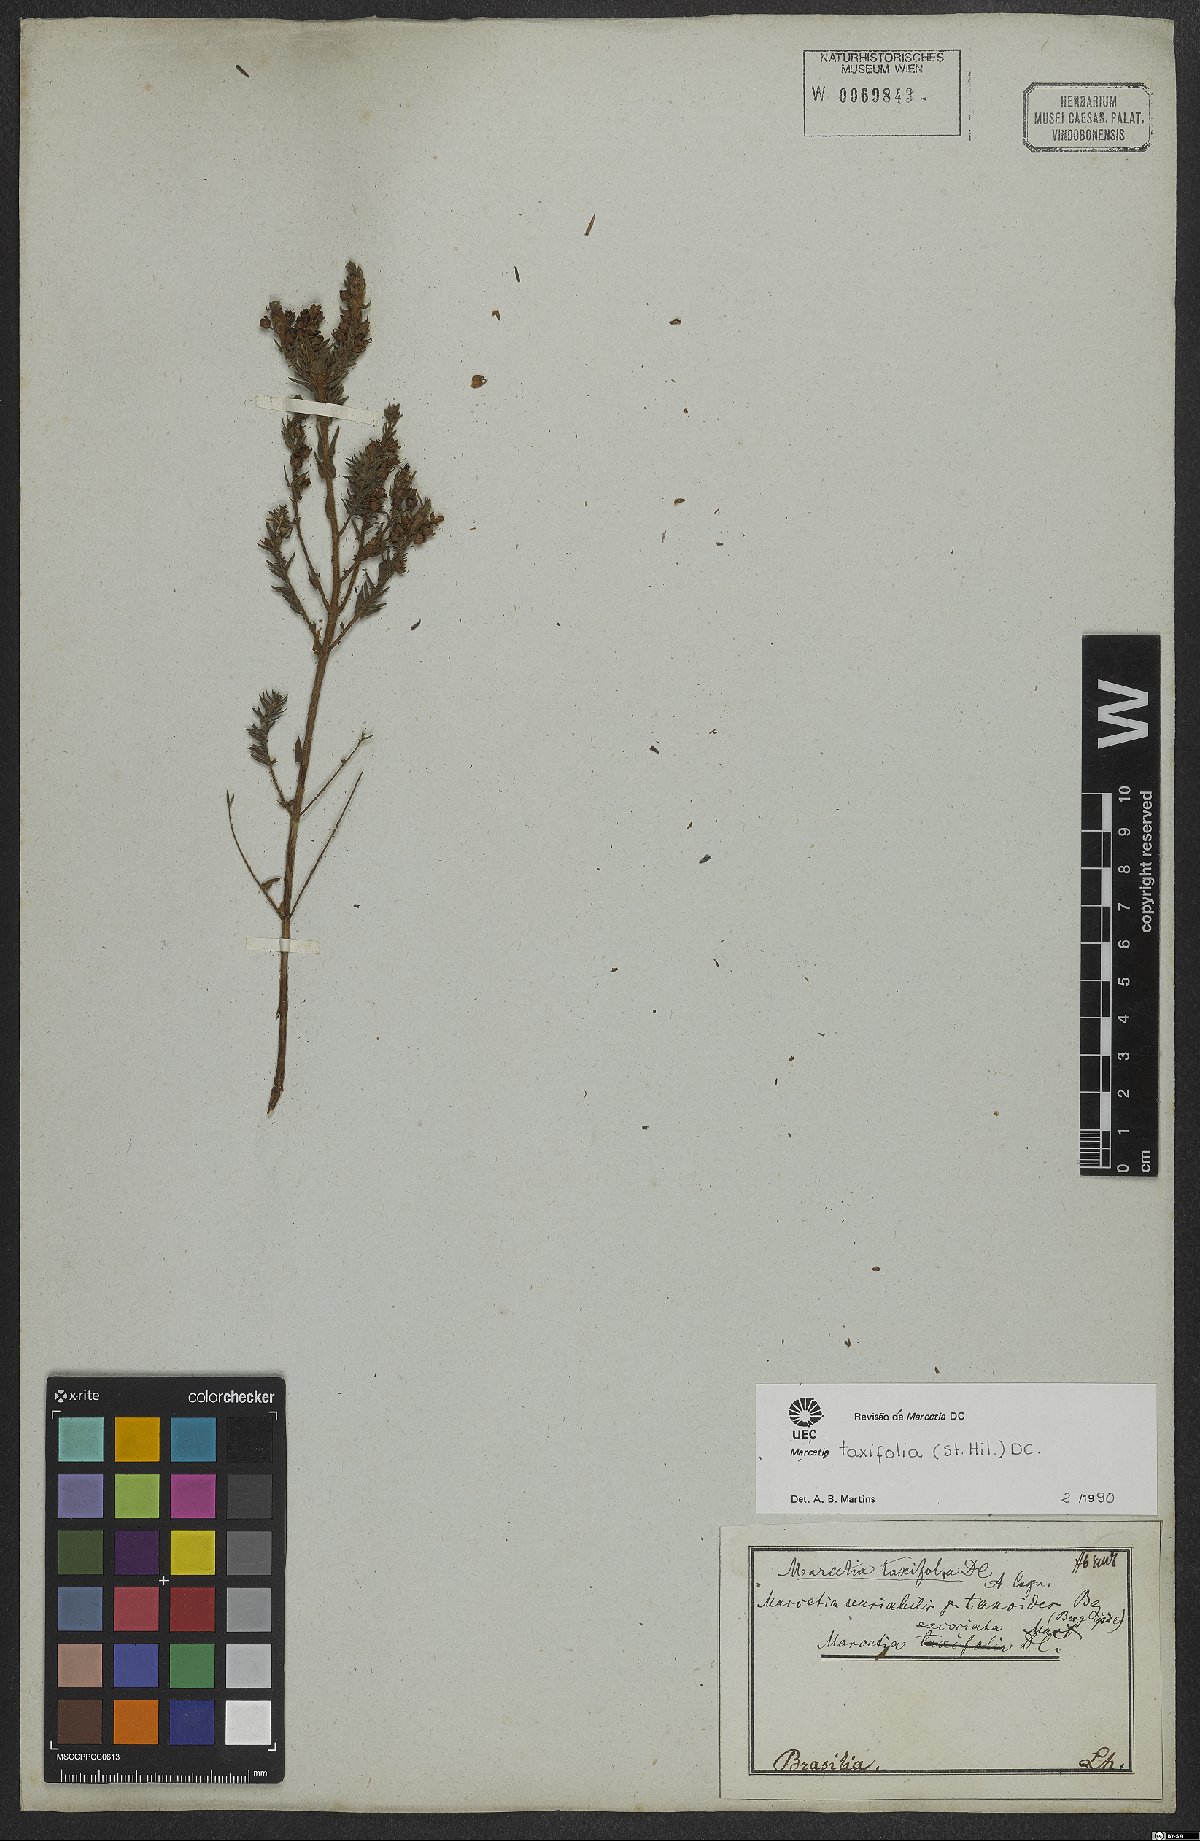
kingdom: Plantae
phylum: Tracheophyta
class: Magnoliopsida
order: Myrtales
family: Melastomataceae
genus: Marcetia
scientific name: Marcetia taxifolia
